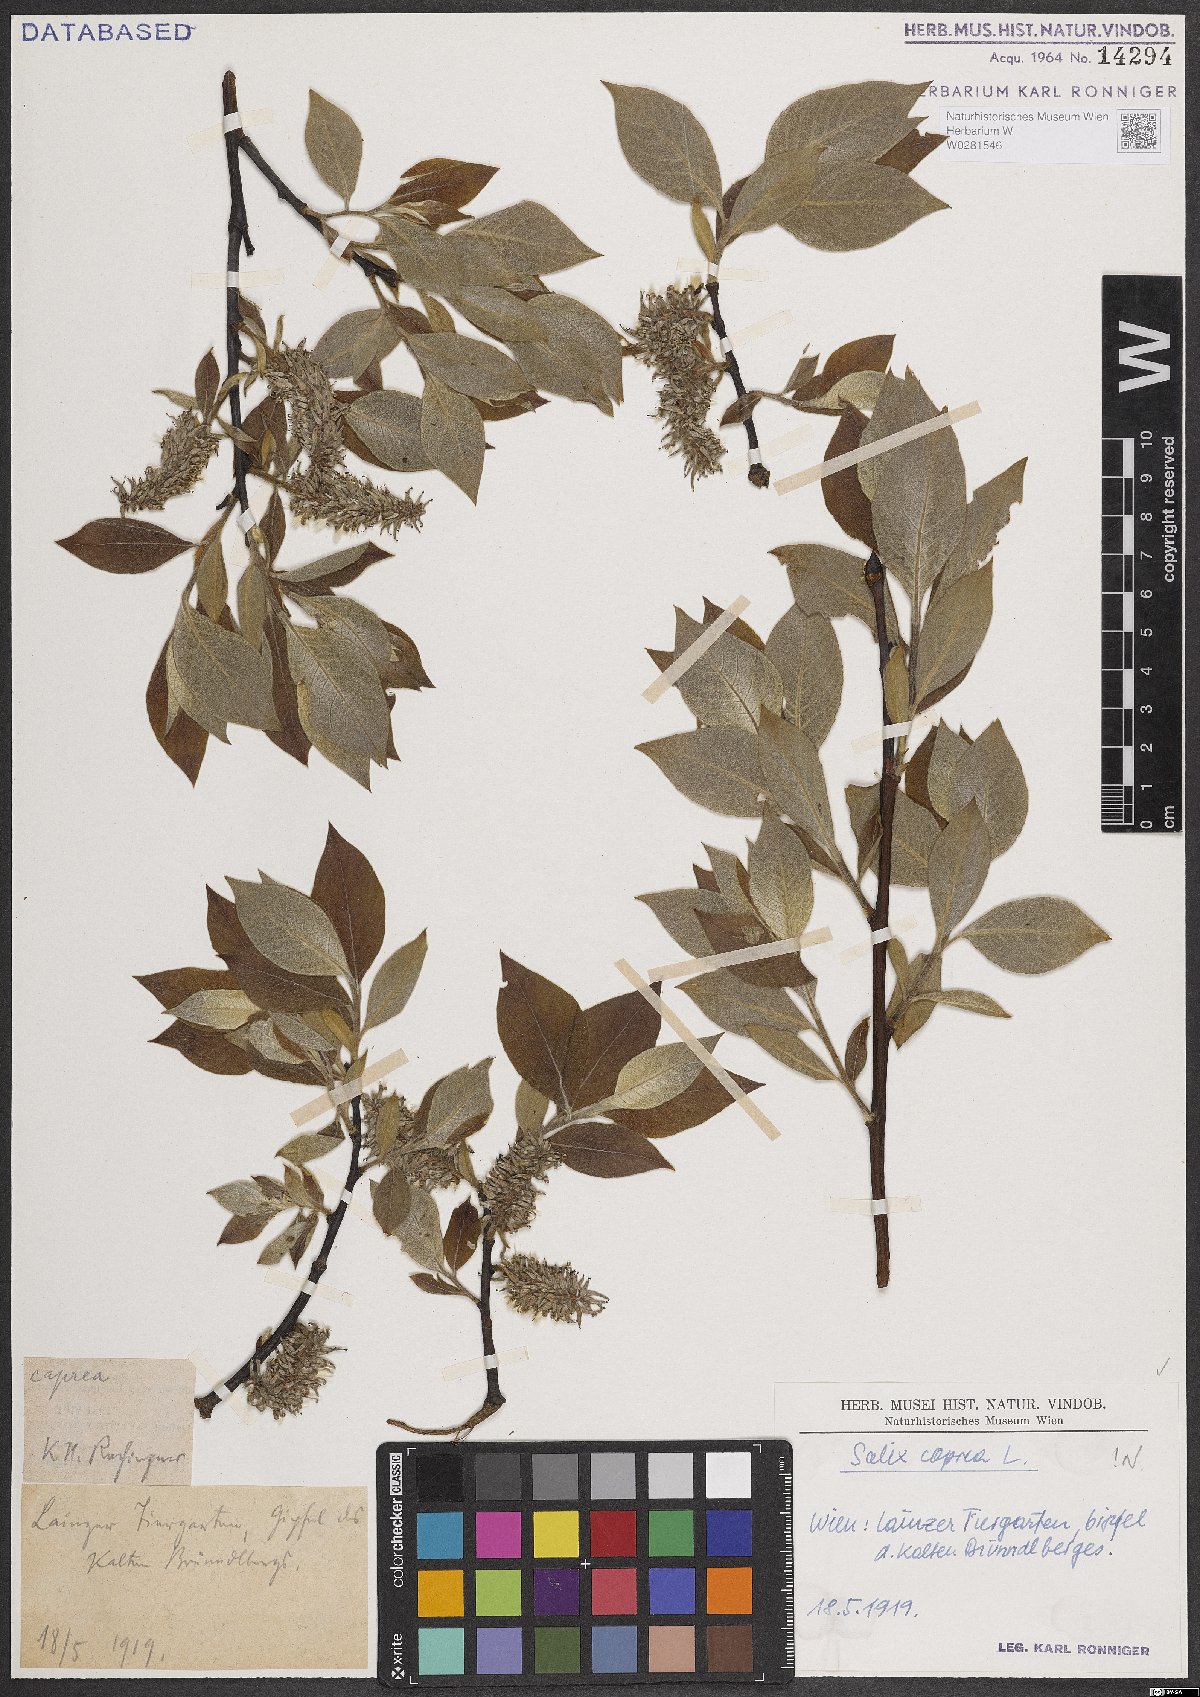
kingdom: Plantae
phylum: Tracheophyta
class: Magnoliopsida
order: Malpighiales
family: Salicaceae
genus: Salix
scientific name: Salix caprea
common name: Goat willow
